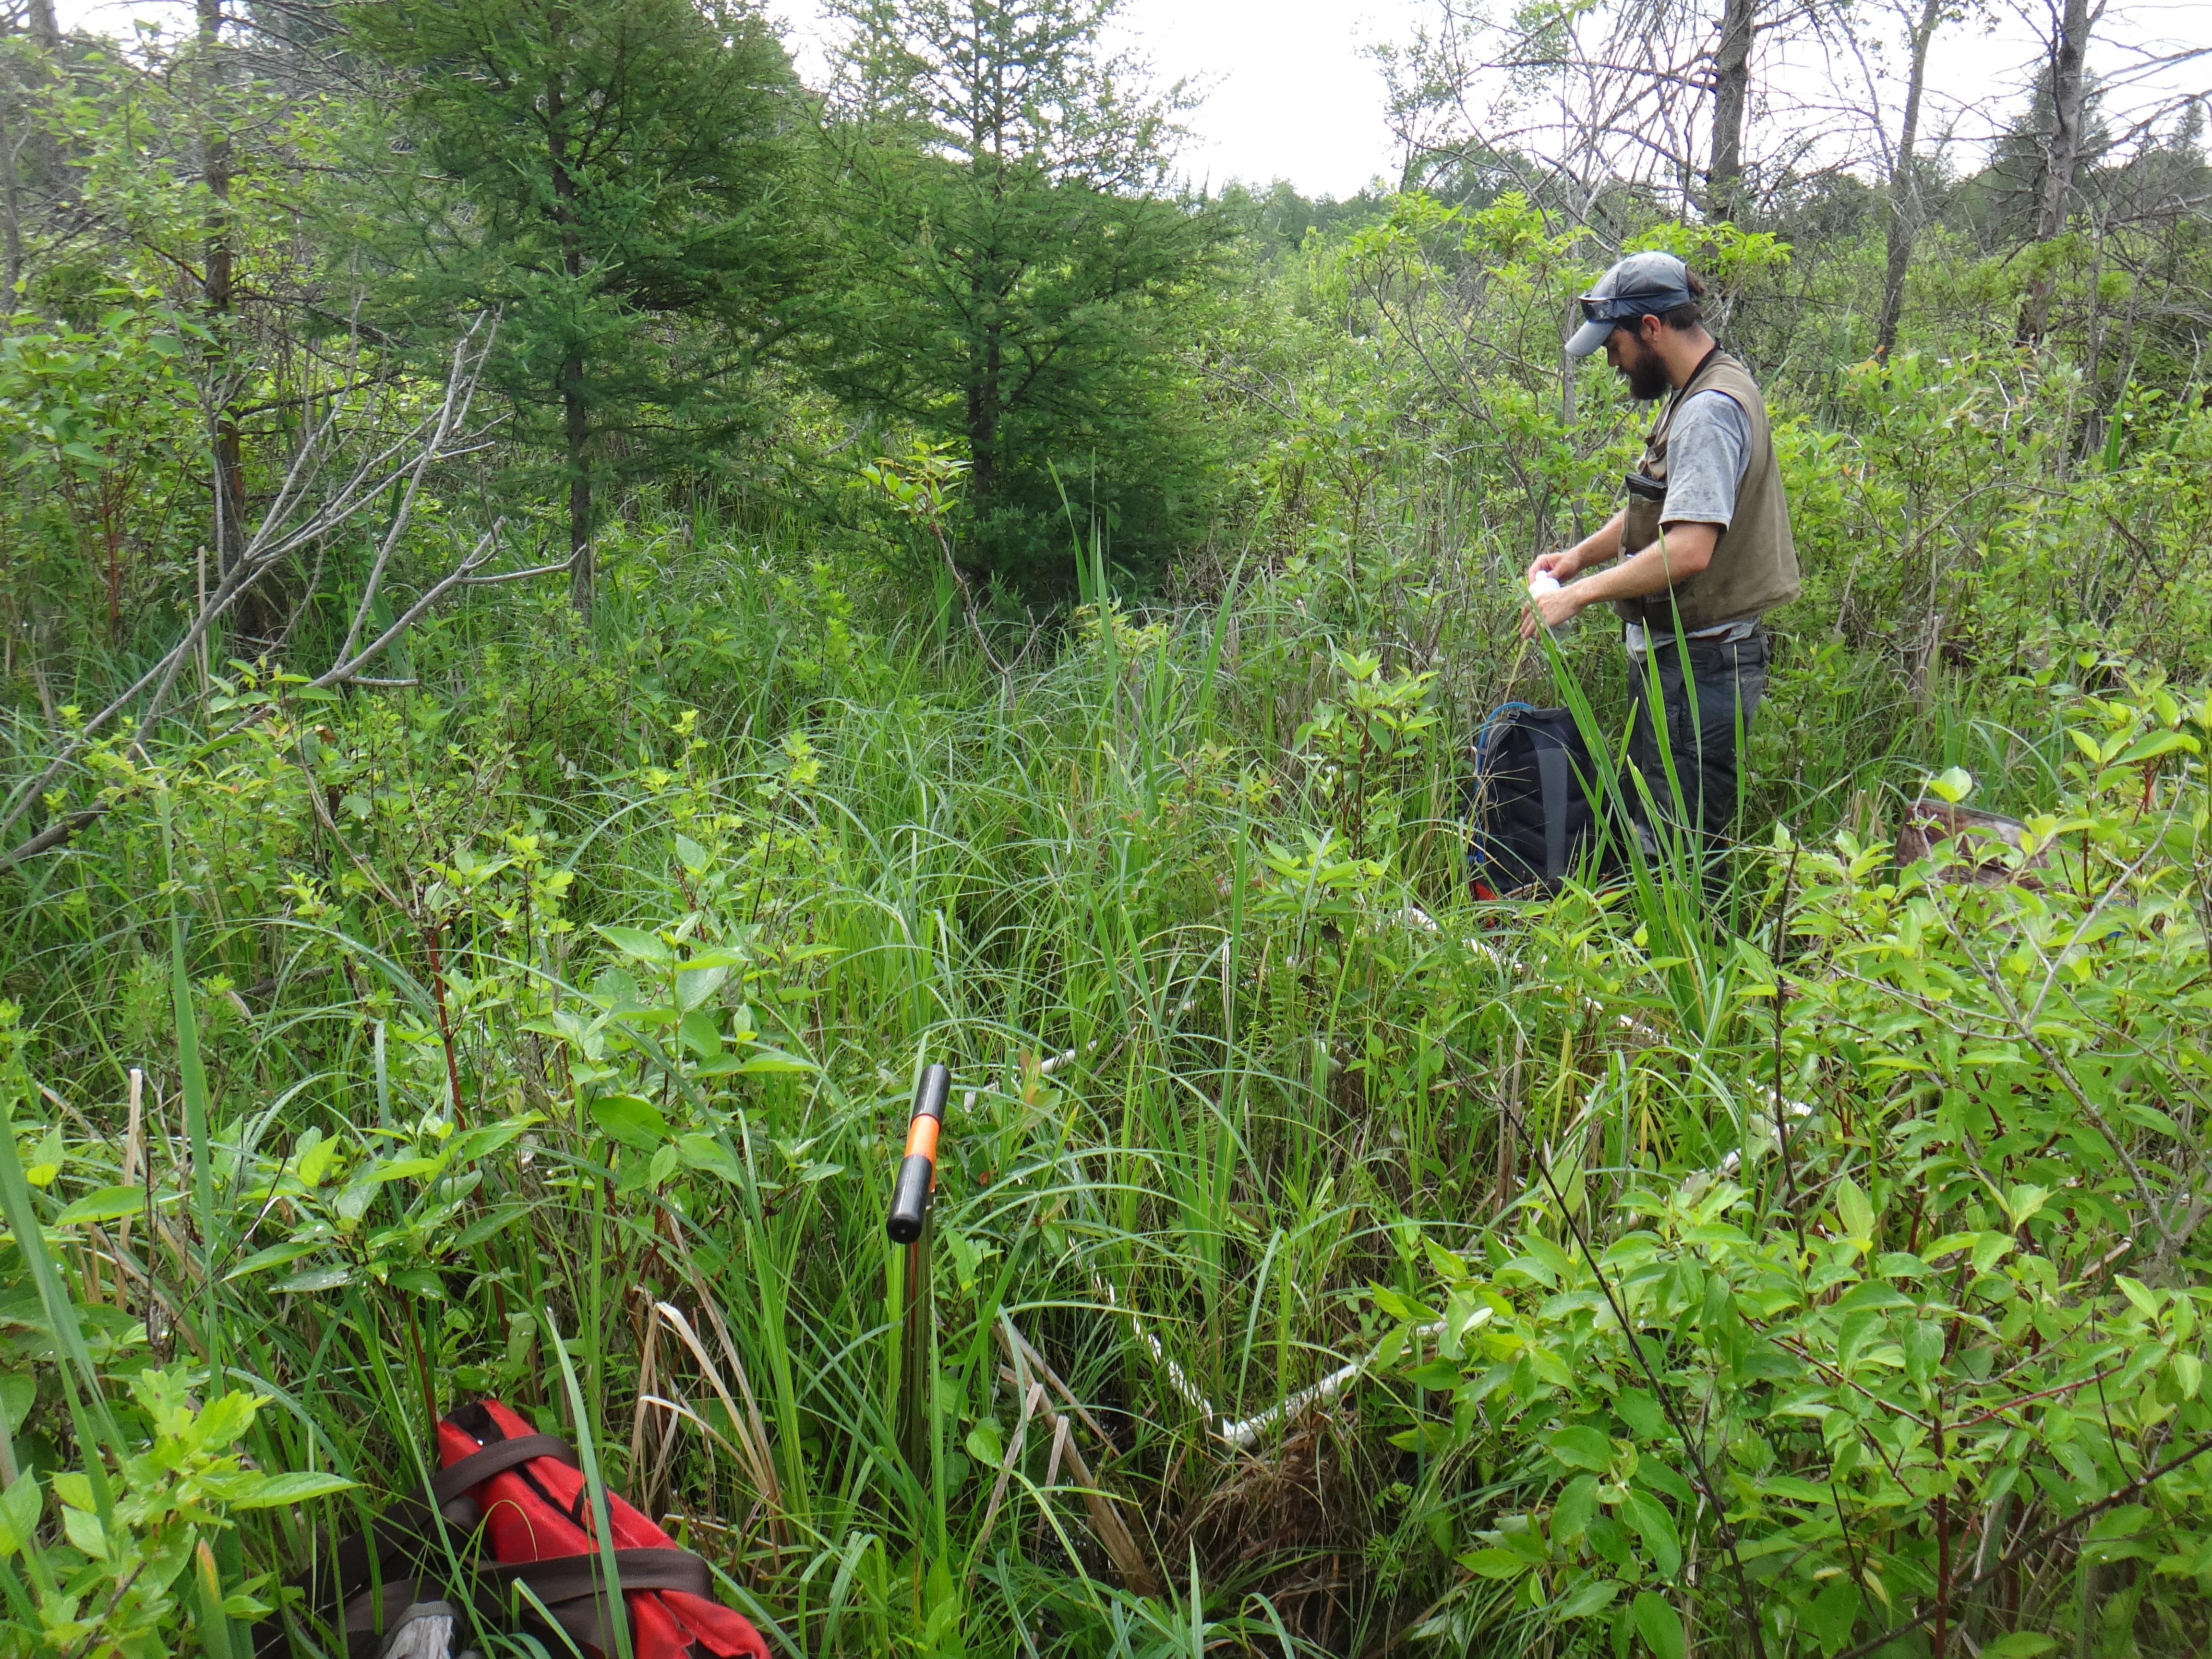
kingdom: Plantae
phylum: Tracheophyta
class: Magnoliopsida
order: Lamiales
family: Lamiaceae
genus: Pycnanthemum
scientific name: Pycnanthemum virginianum
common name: Virginia mountain-mint
